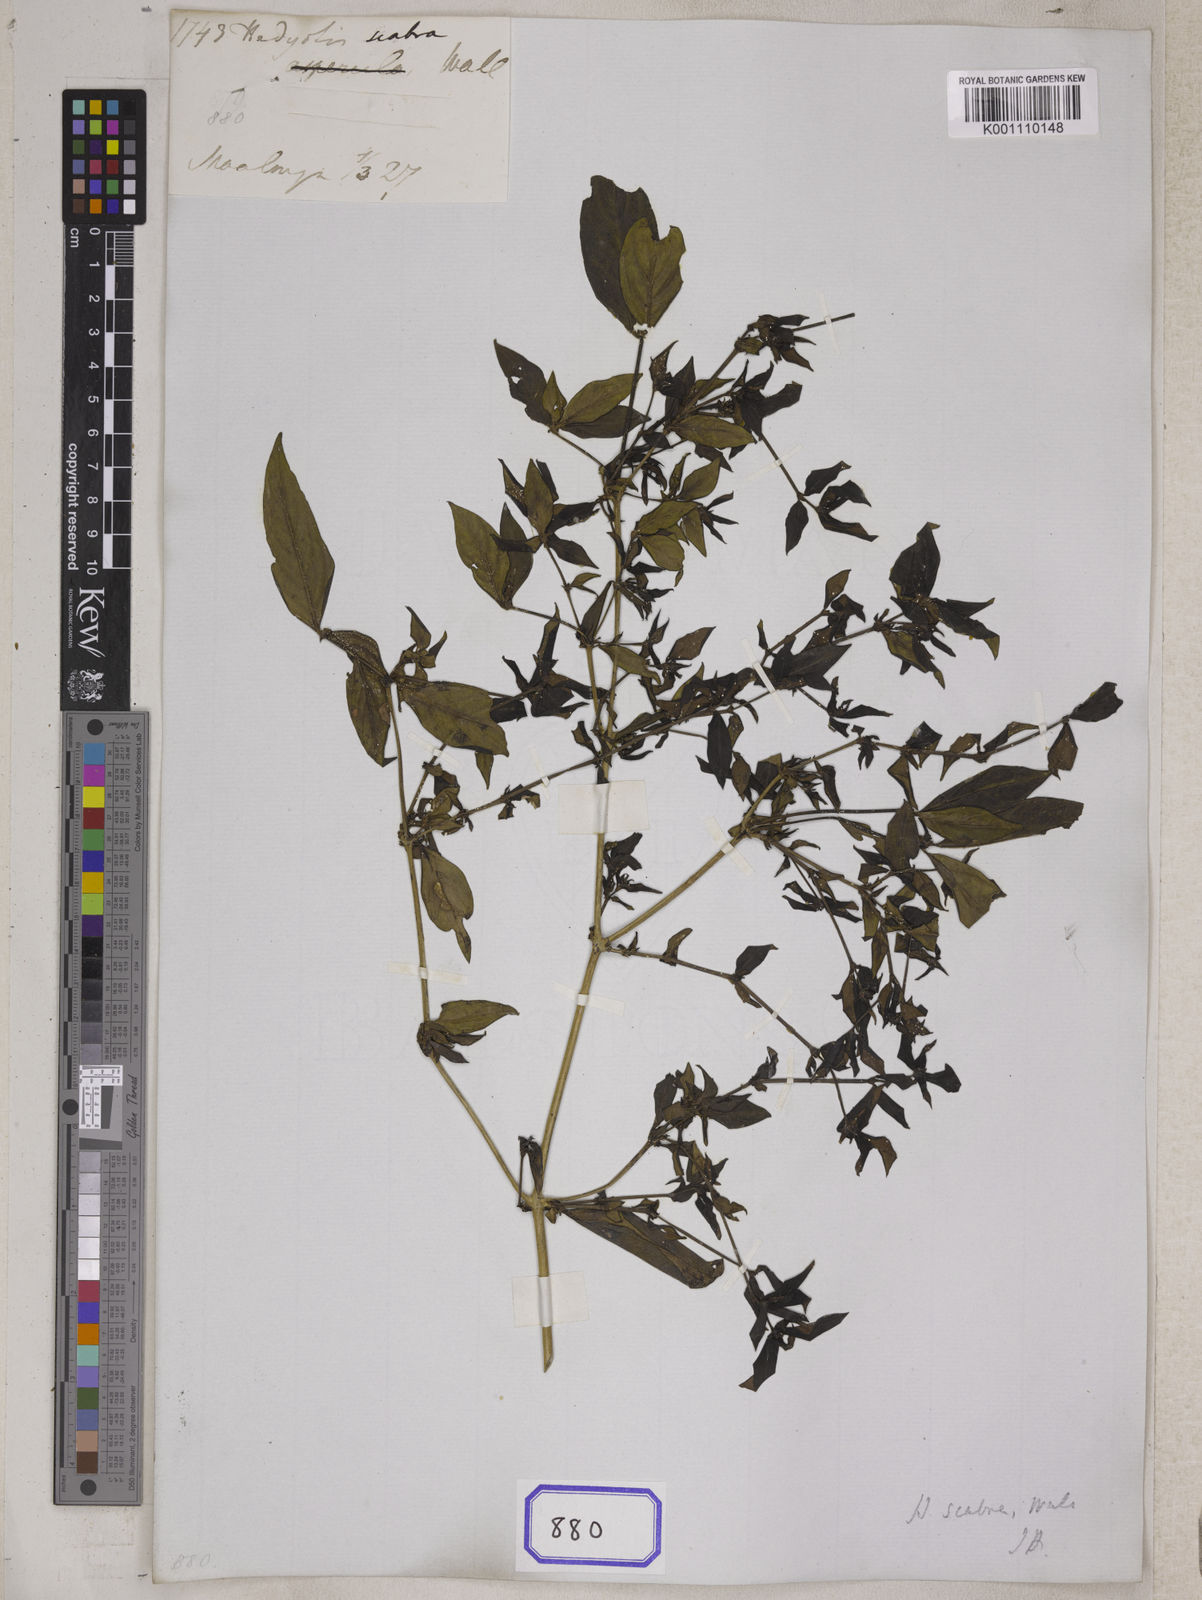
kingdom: Plantae
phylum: Tracheophyta
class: Magnoliopsida
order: Gentianales
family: Rubiaceae
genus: Hedyotis
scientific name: Hedyotis
